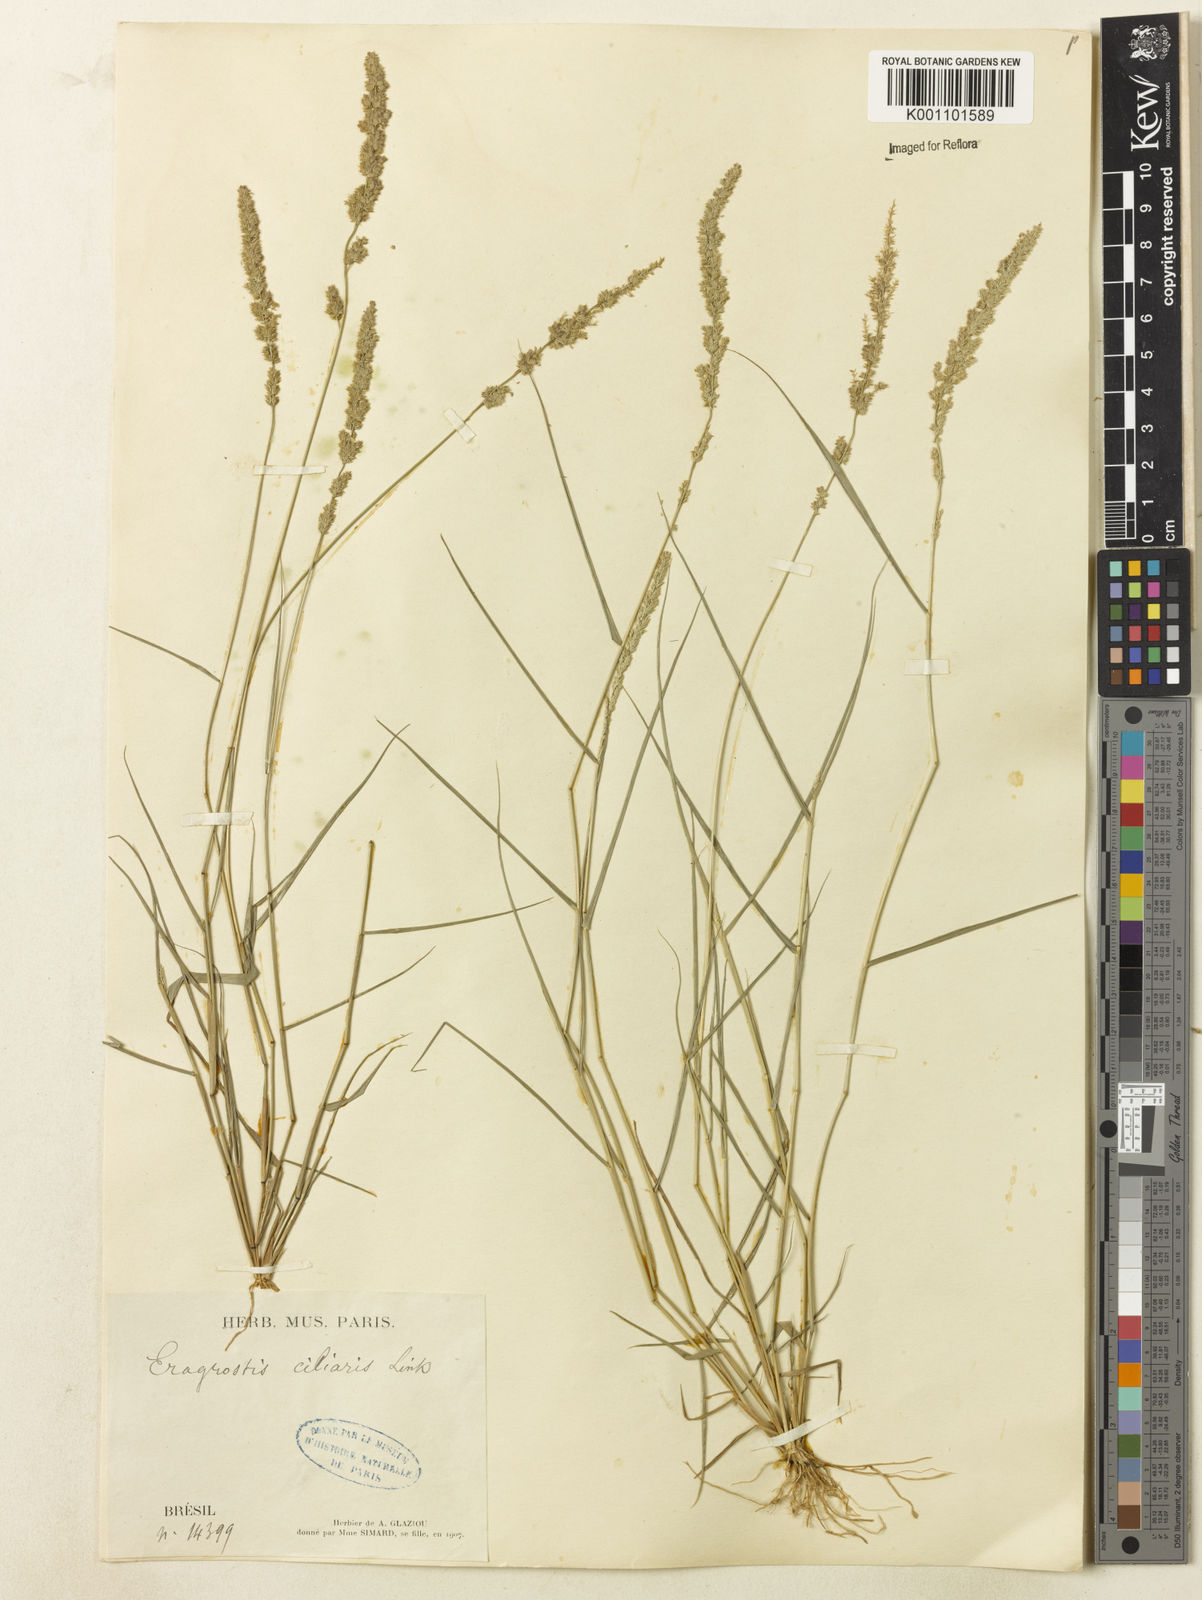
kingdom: Plantae
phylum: Tracheophyta
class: Liliopsida
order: Poales
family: Poaceae
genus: Eragrostis
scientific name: Eragrostis ciliaris
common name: Gophertail lovegrass
